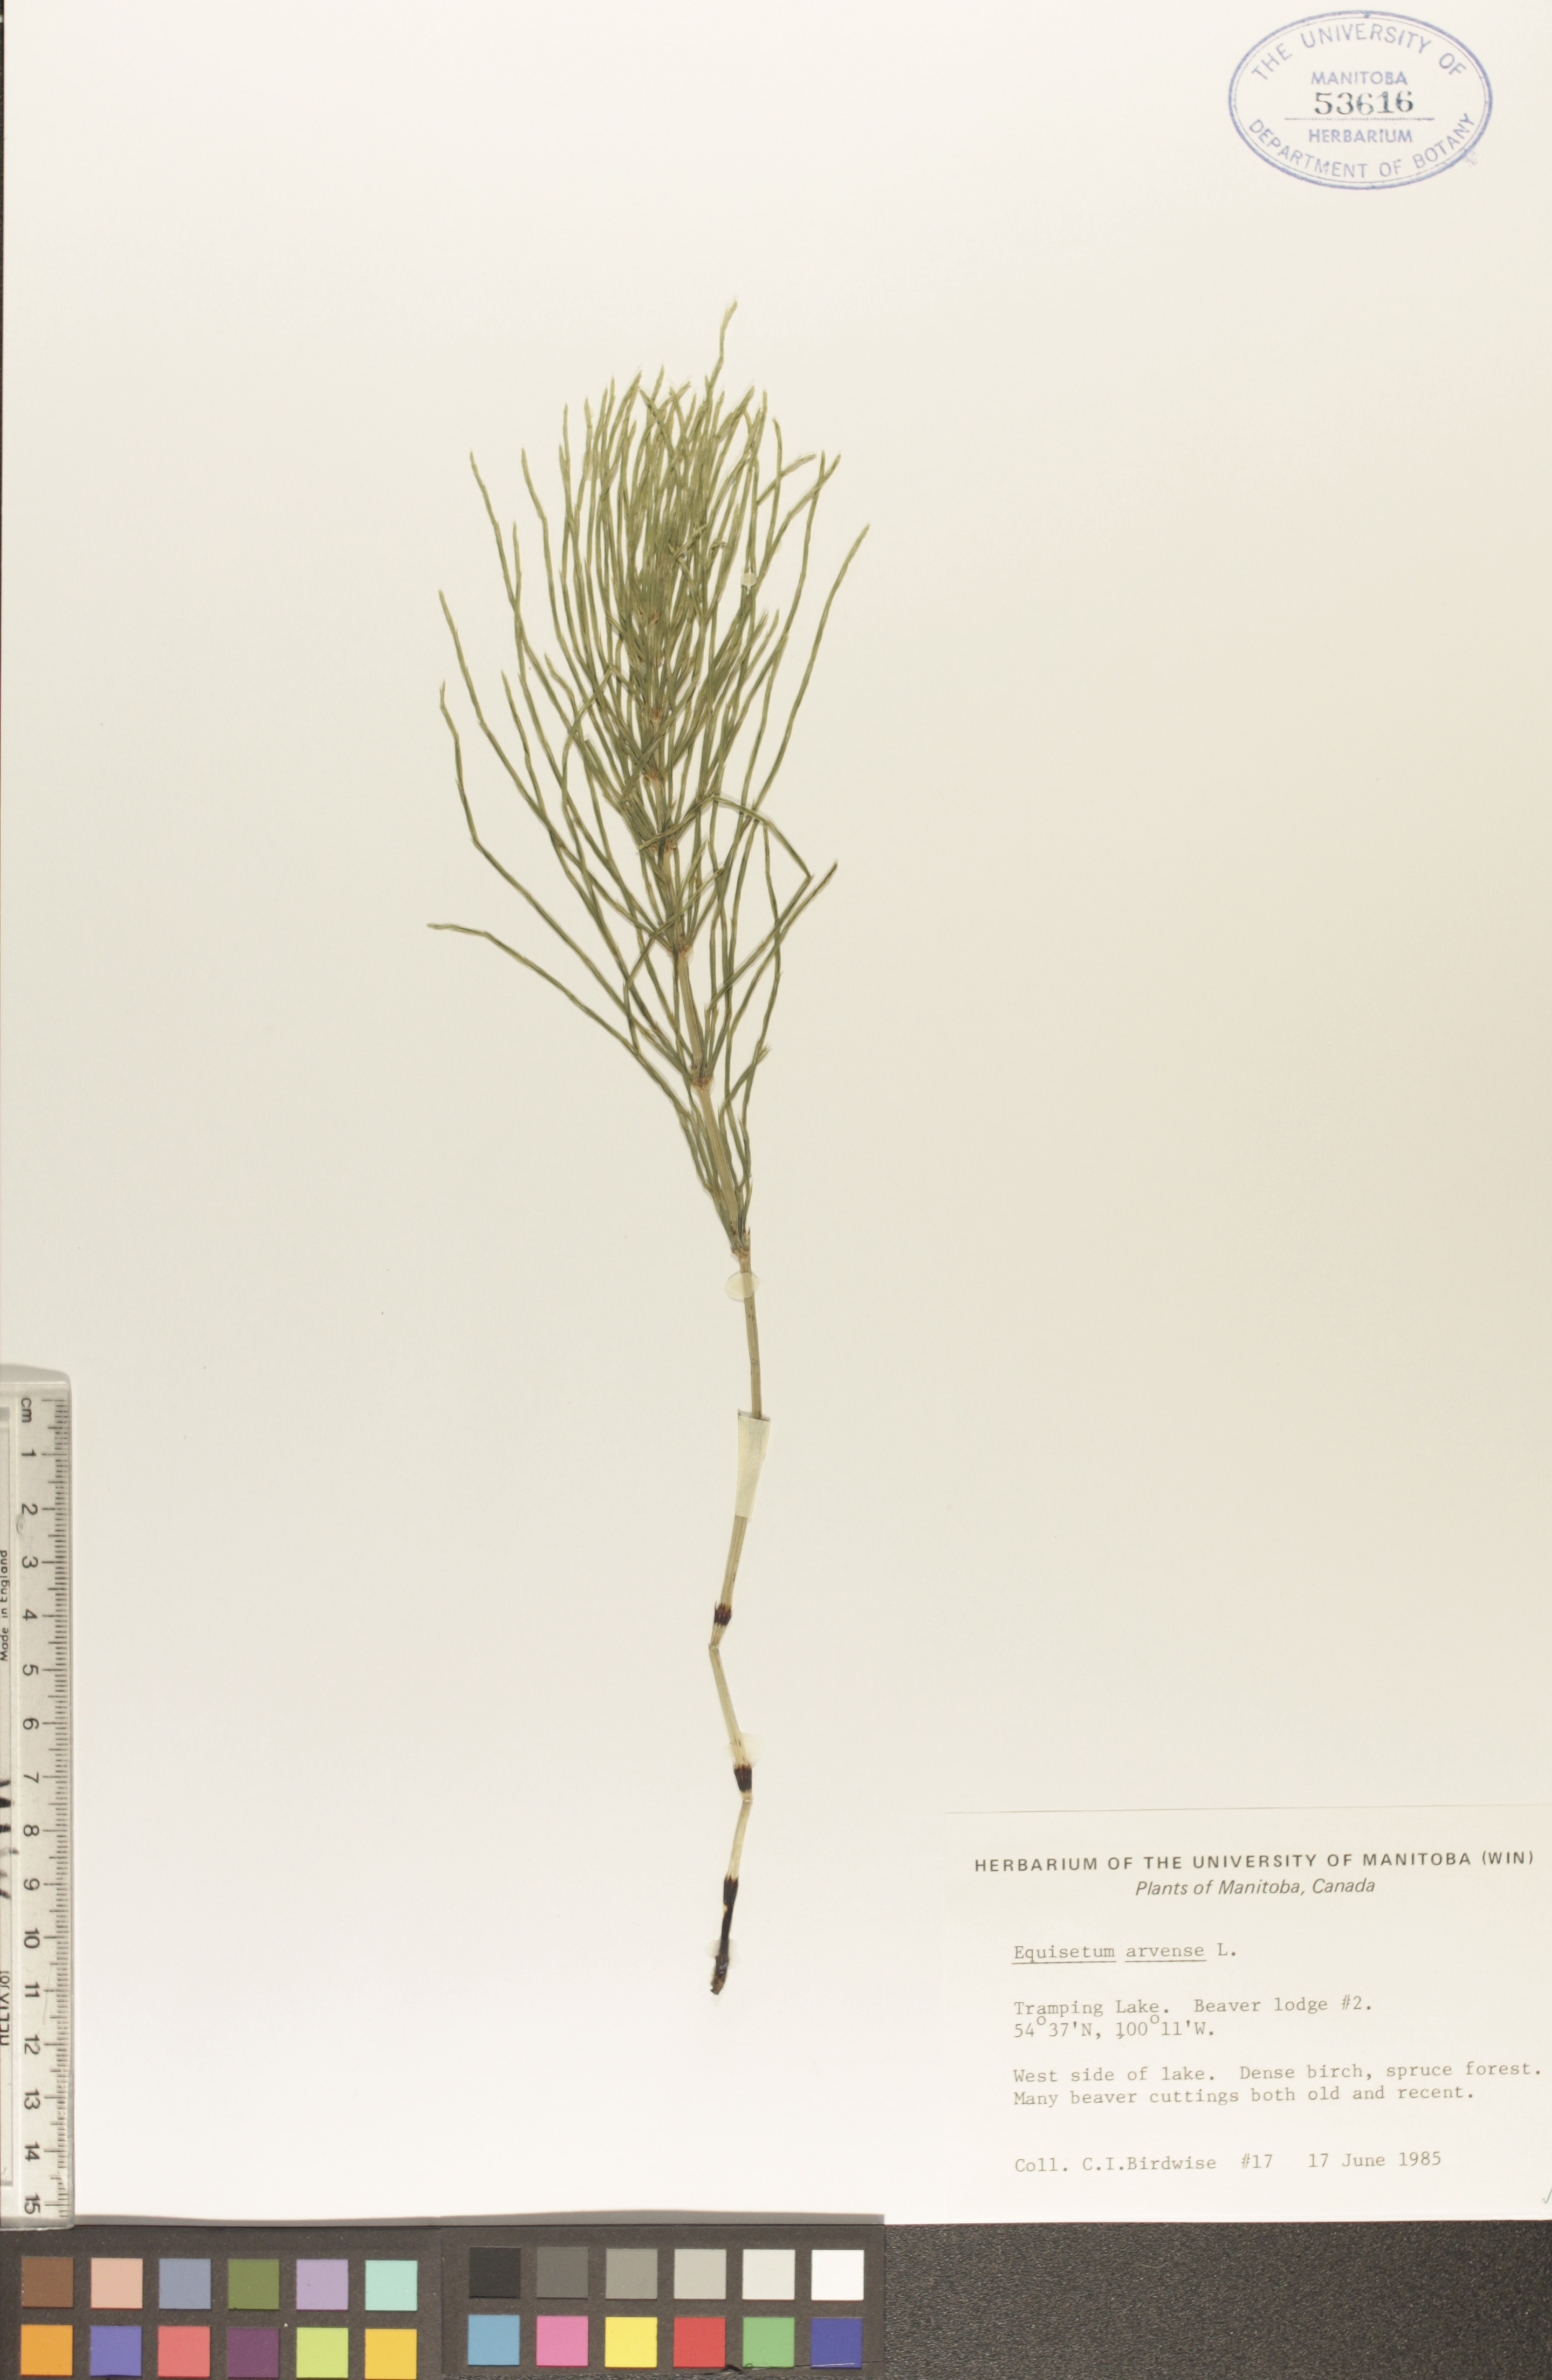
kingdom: Plantae
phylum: Tracheophyta
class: Polypodiopsida
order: Equisetales
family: Equisetaceae
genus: Equisetum
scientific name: Equisetum arvense
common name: Field horsetail
